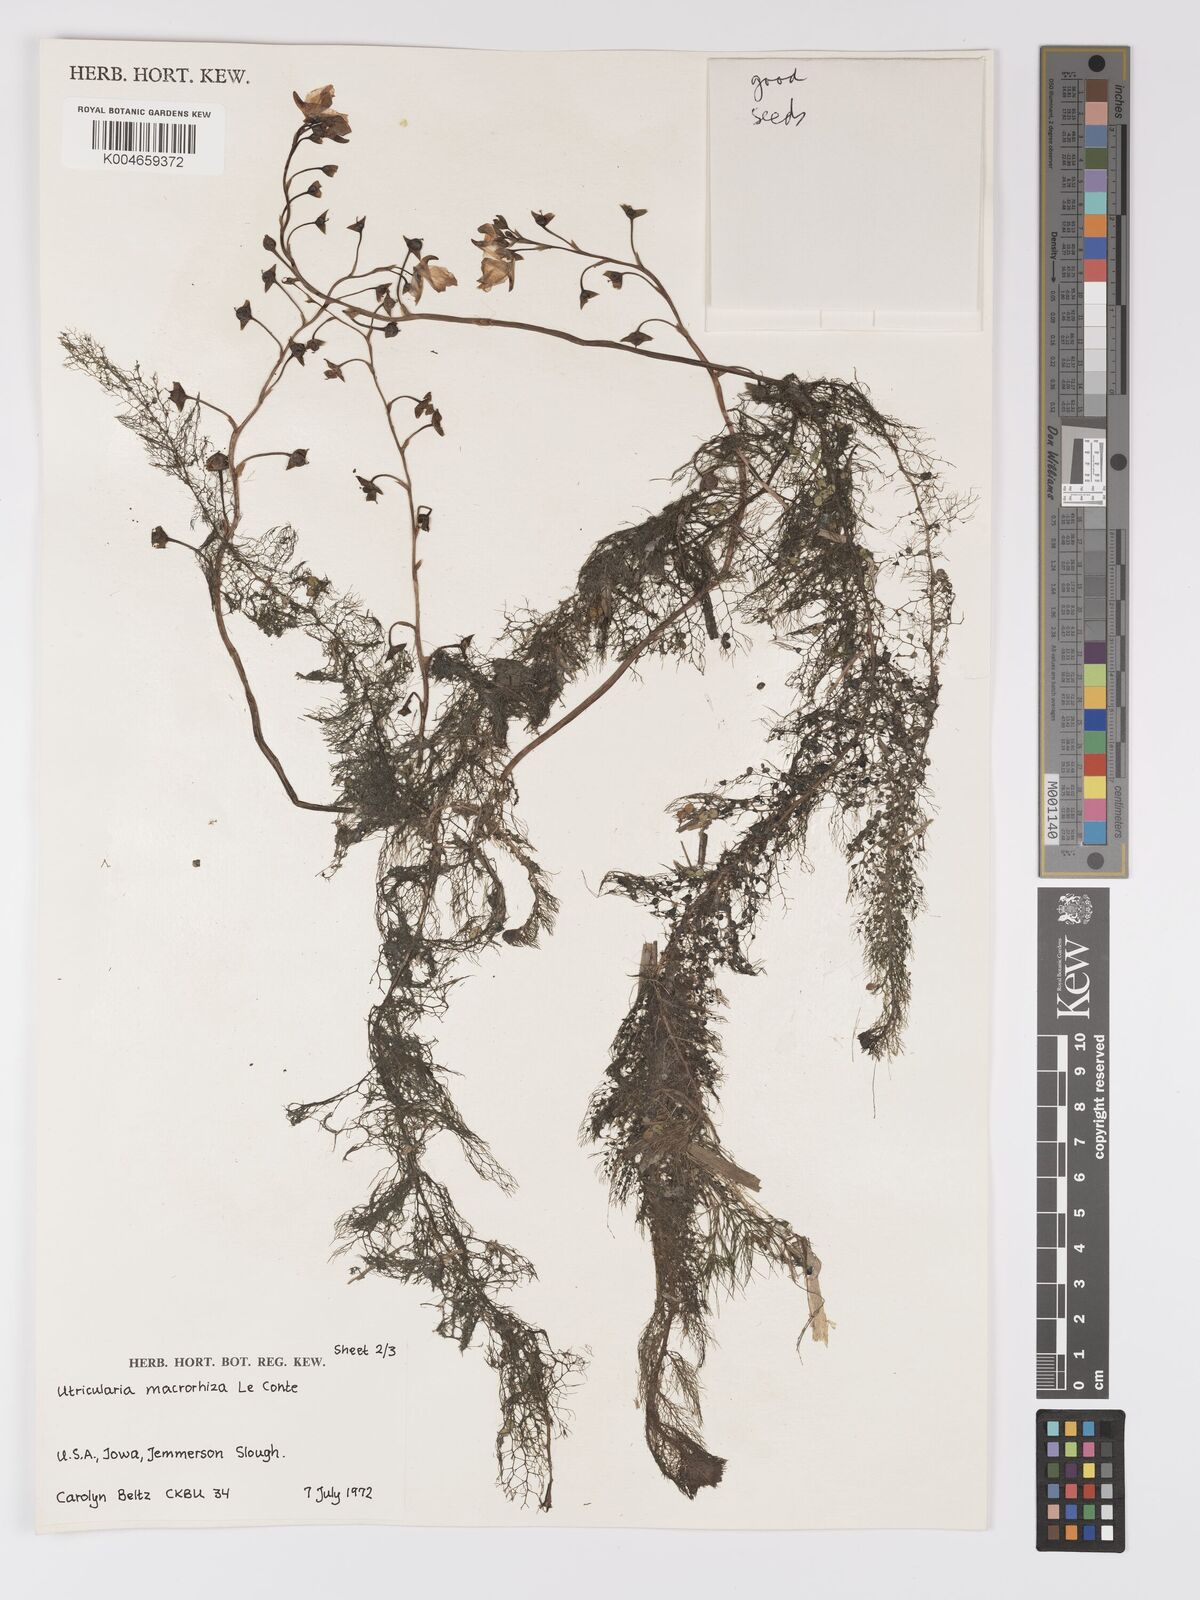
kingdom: Plantae
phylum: Tracheophyta
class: Magnoliopsida
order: Lamiales
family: Lentibulariaceae
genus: Utricularia
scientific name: Utricularia macrorhiza
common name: Common bladderwort
